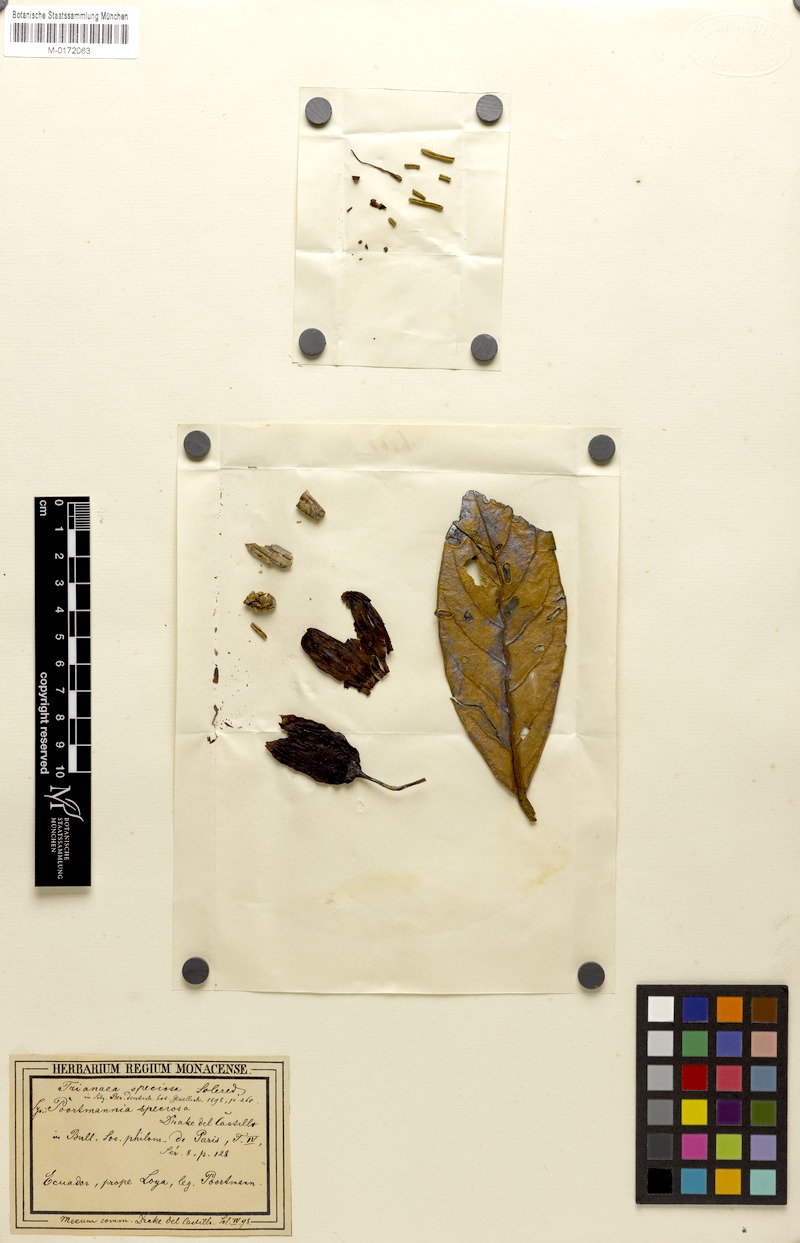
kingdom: Plantae
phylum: Tracheophyta
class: Magnoliopsida
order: Solanales
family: Solanaceae
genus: Poortmannia
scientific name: Poortmannia speciosa
